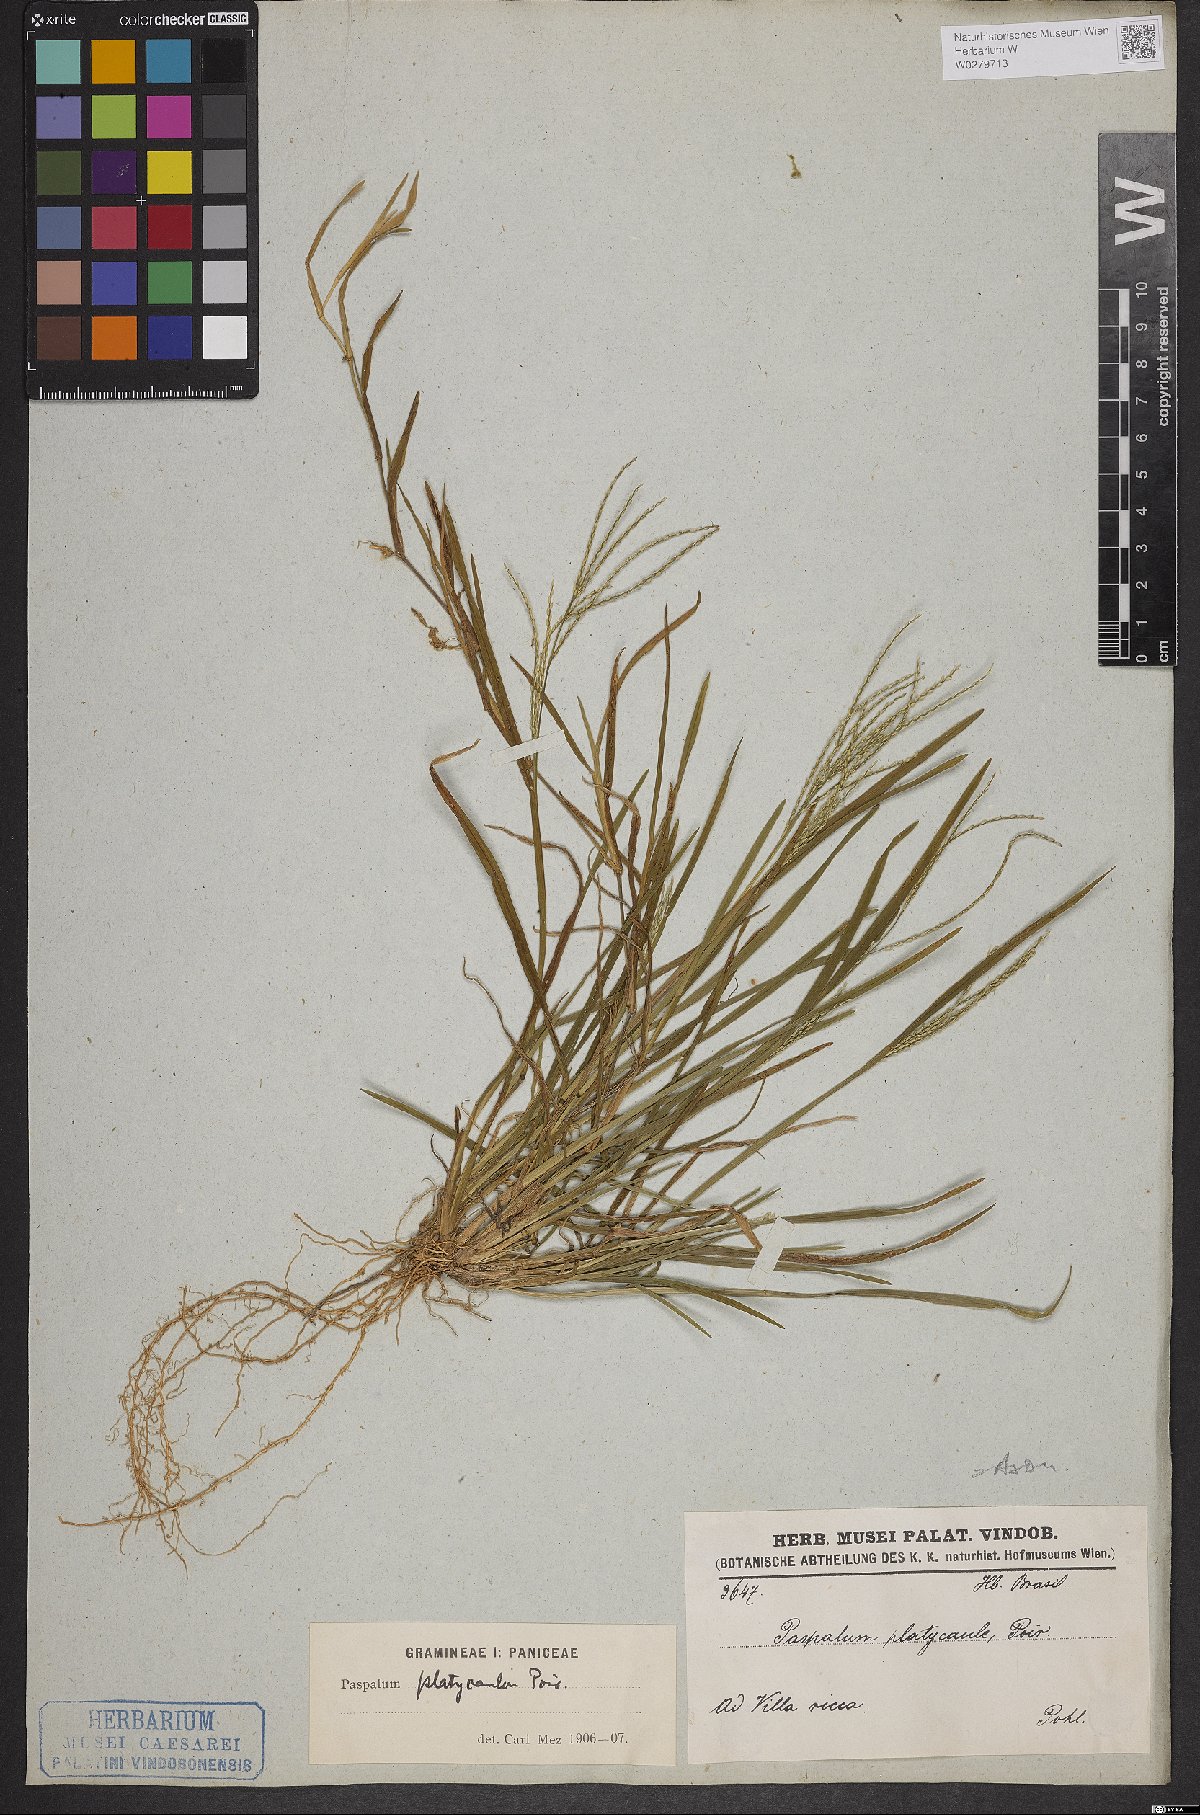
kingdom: Plantae
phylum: Tracheophyta
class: Liliopsida
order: Poales
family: Poaceae
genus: Axonopus
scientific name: Axonopus compressus
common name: American carpet grass
